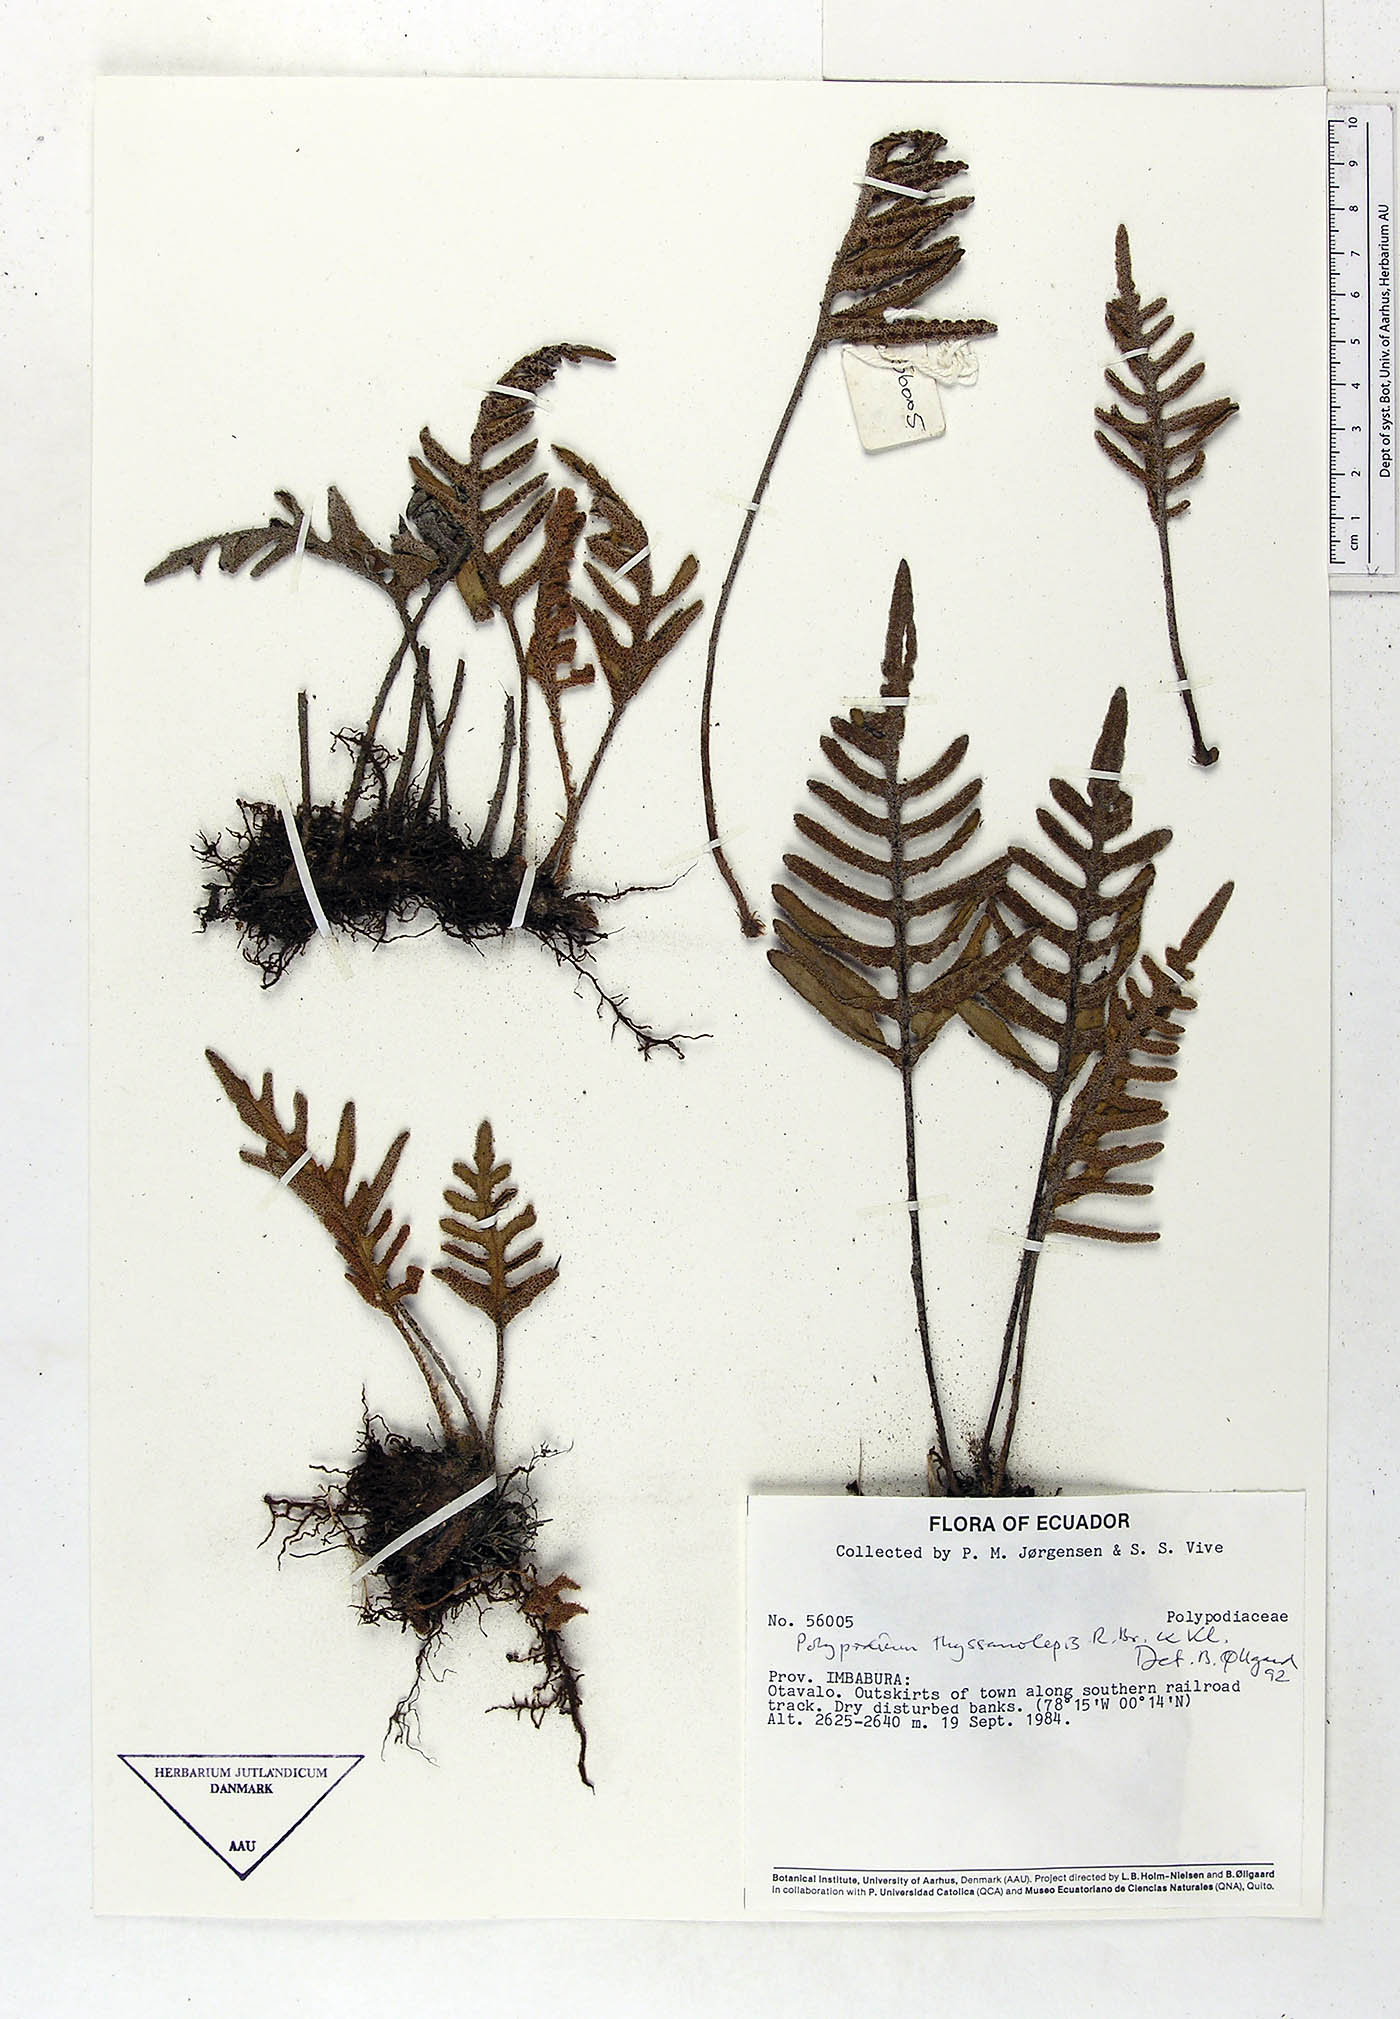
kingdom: Plantae
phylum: Tracheophyta
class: Polypodiopsida
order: Polypodiales
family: Polypodiaceae
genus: Pleopeltis
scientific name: Pleopeltis thyssanolepis
